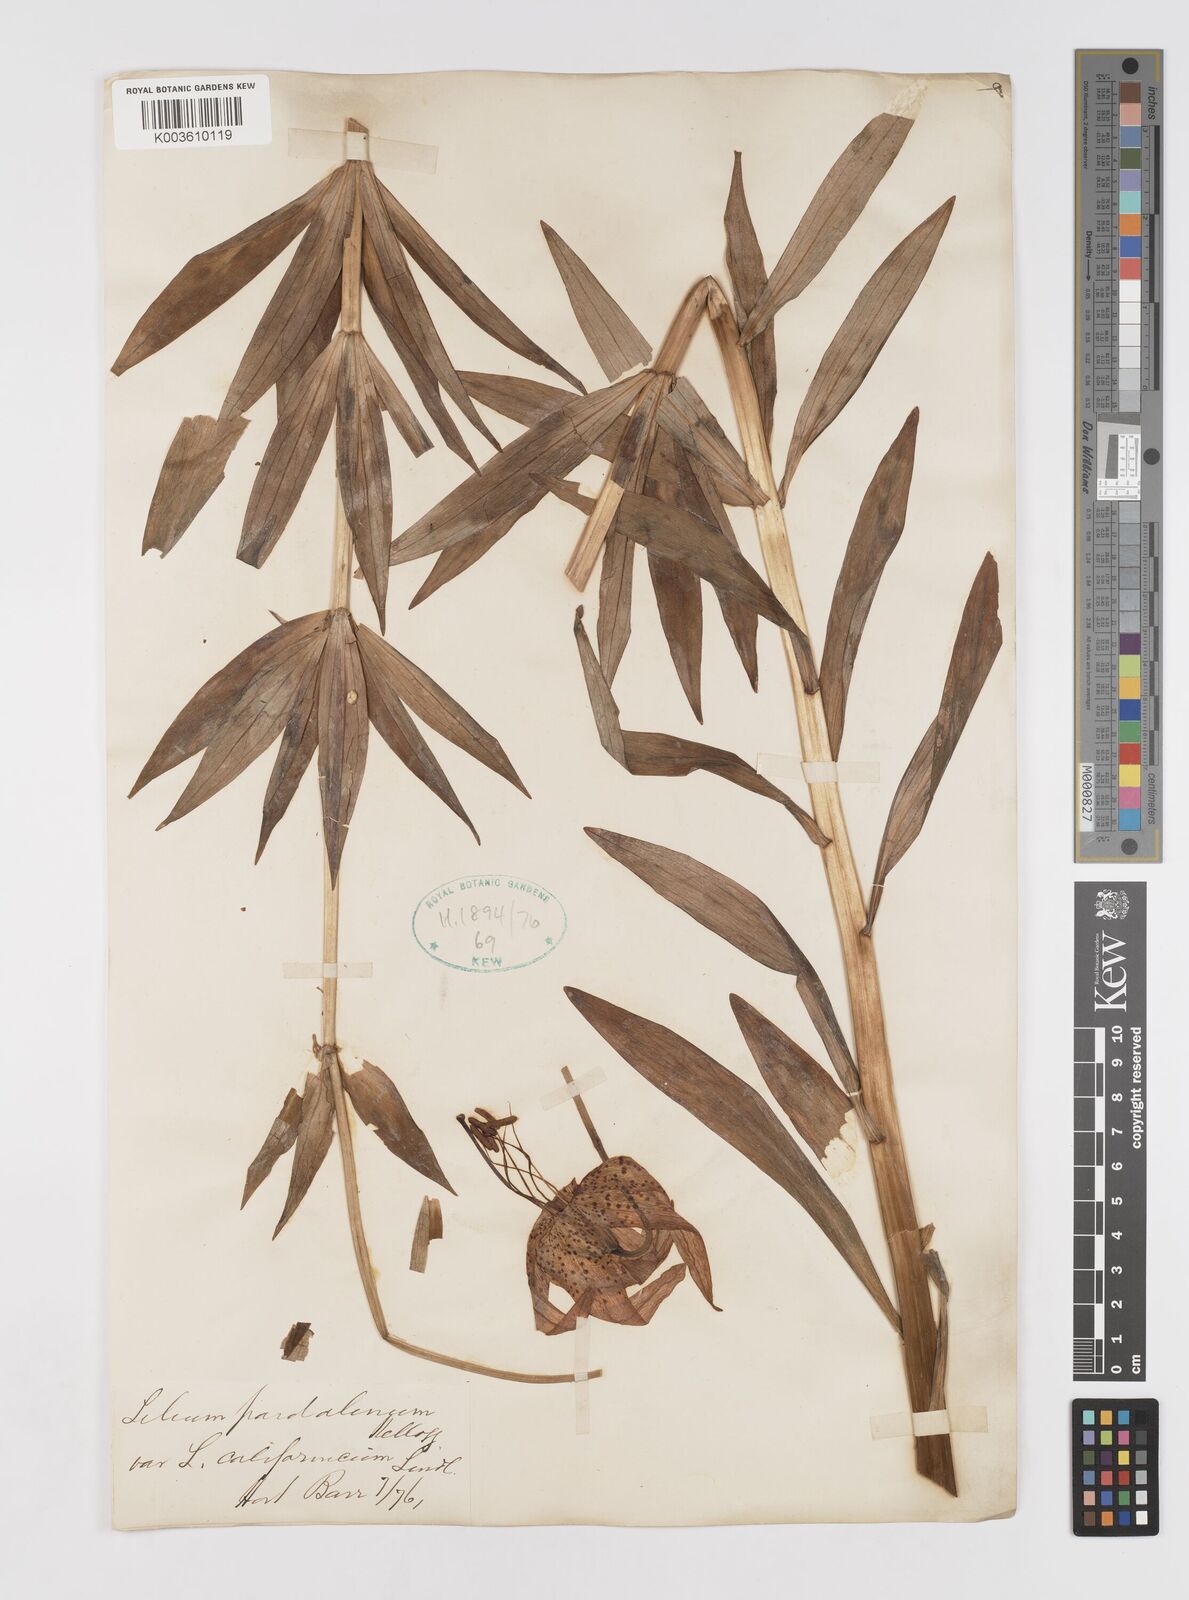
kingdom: Plantae
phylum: Tracheophyta
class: Liliopsida
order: Liliales
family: Liliaceae
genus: Lilium
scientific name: Lilium pardalinum
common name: Panther lily
